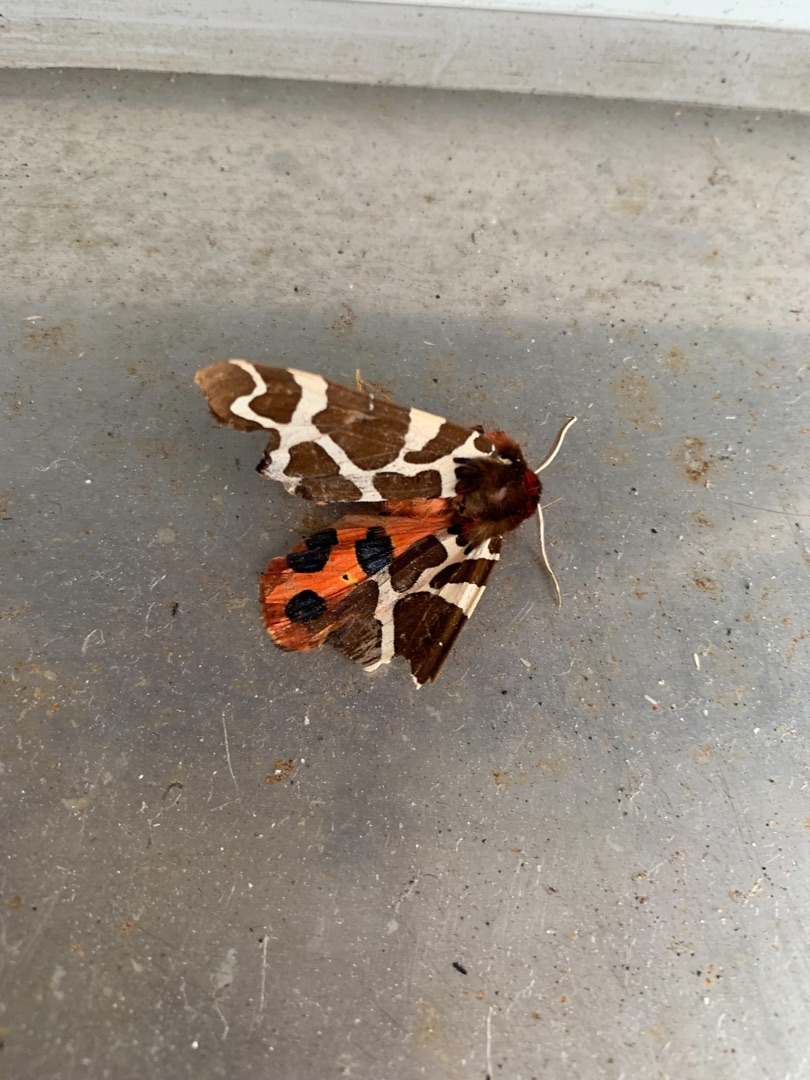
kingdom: Animalia
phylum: Arthropoda
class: Insecta
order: Lepidoptera
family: Erebidae
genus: Arctia
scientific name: Arctia caja
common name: Brun bjørn
